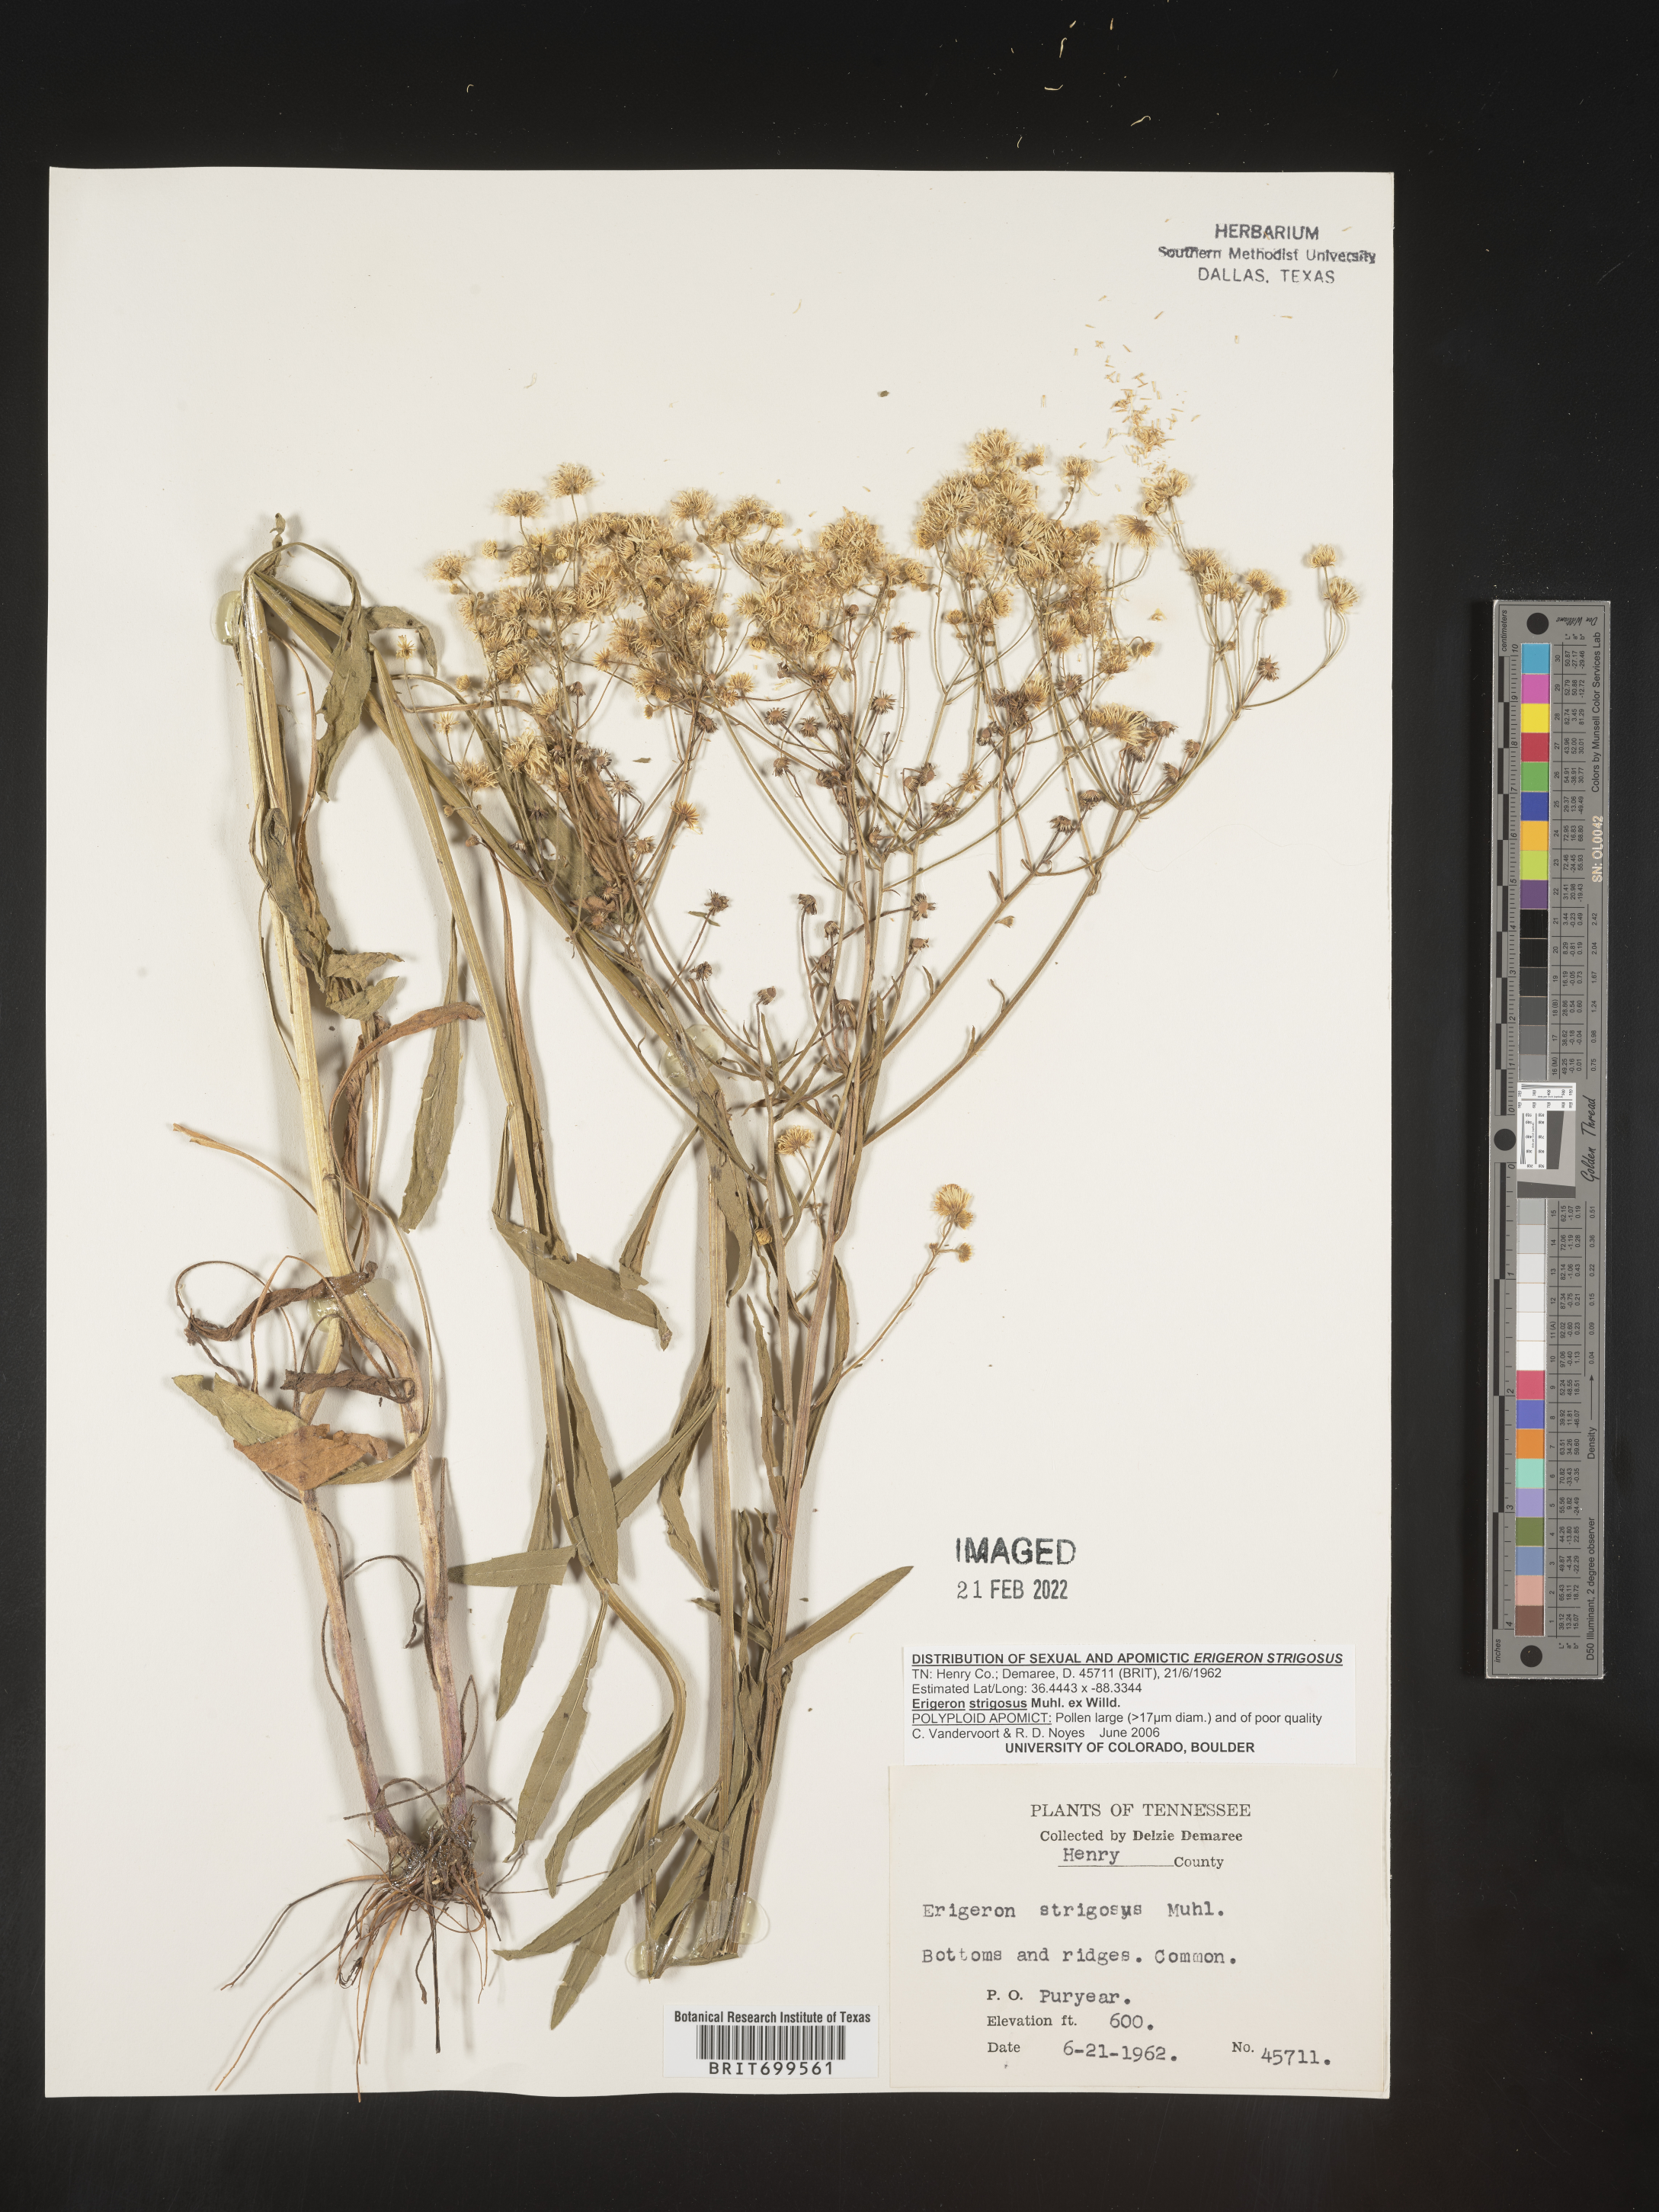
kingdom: Plantae
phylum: Tracheophyta
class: Magnoliopsida
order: Asterales
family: Asteraceae
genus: Erigeron
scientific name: Erigeron strigosus
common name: Common eastern fleabane
